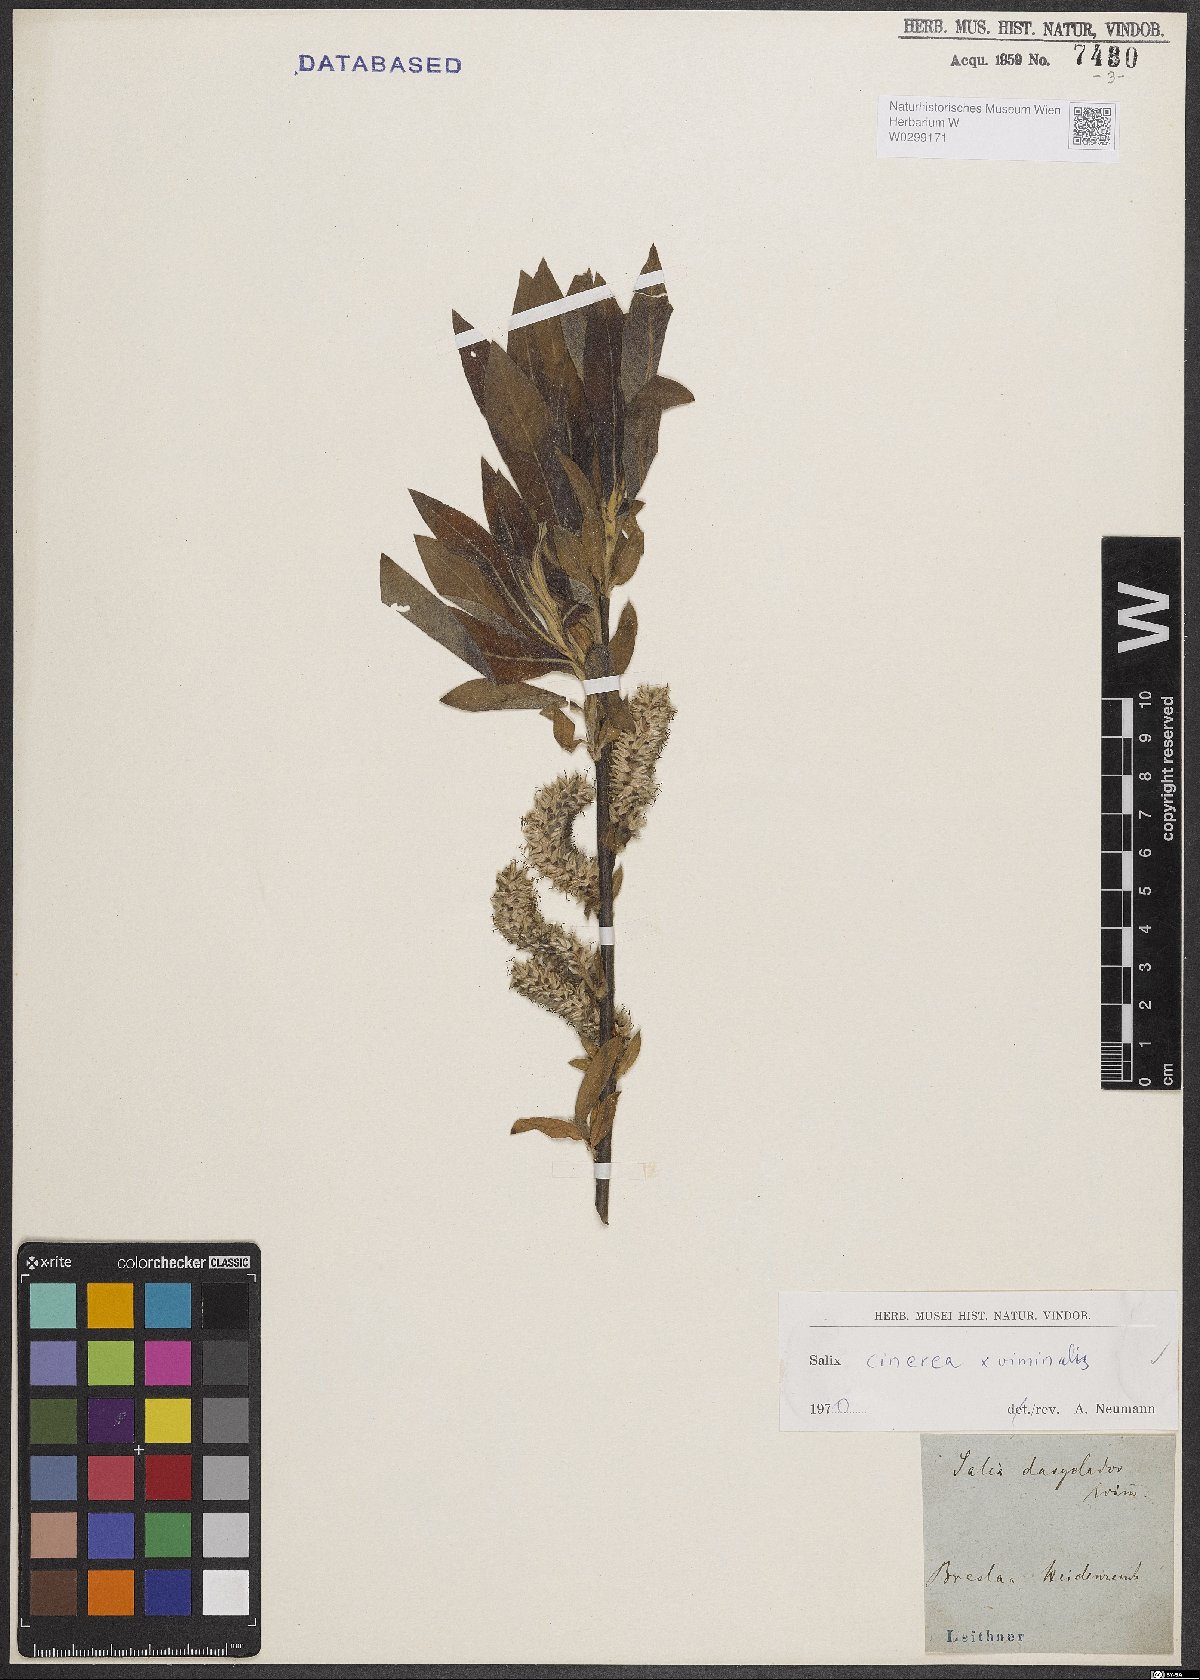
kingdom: Plantae
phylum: Tracheophyta
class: Magnoliopsida
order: Malpighiales
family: Salicaceae
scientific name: Salicaceae
